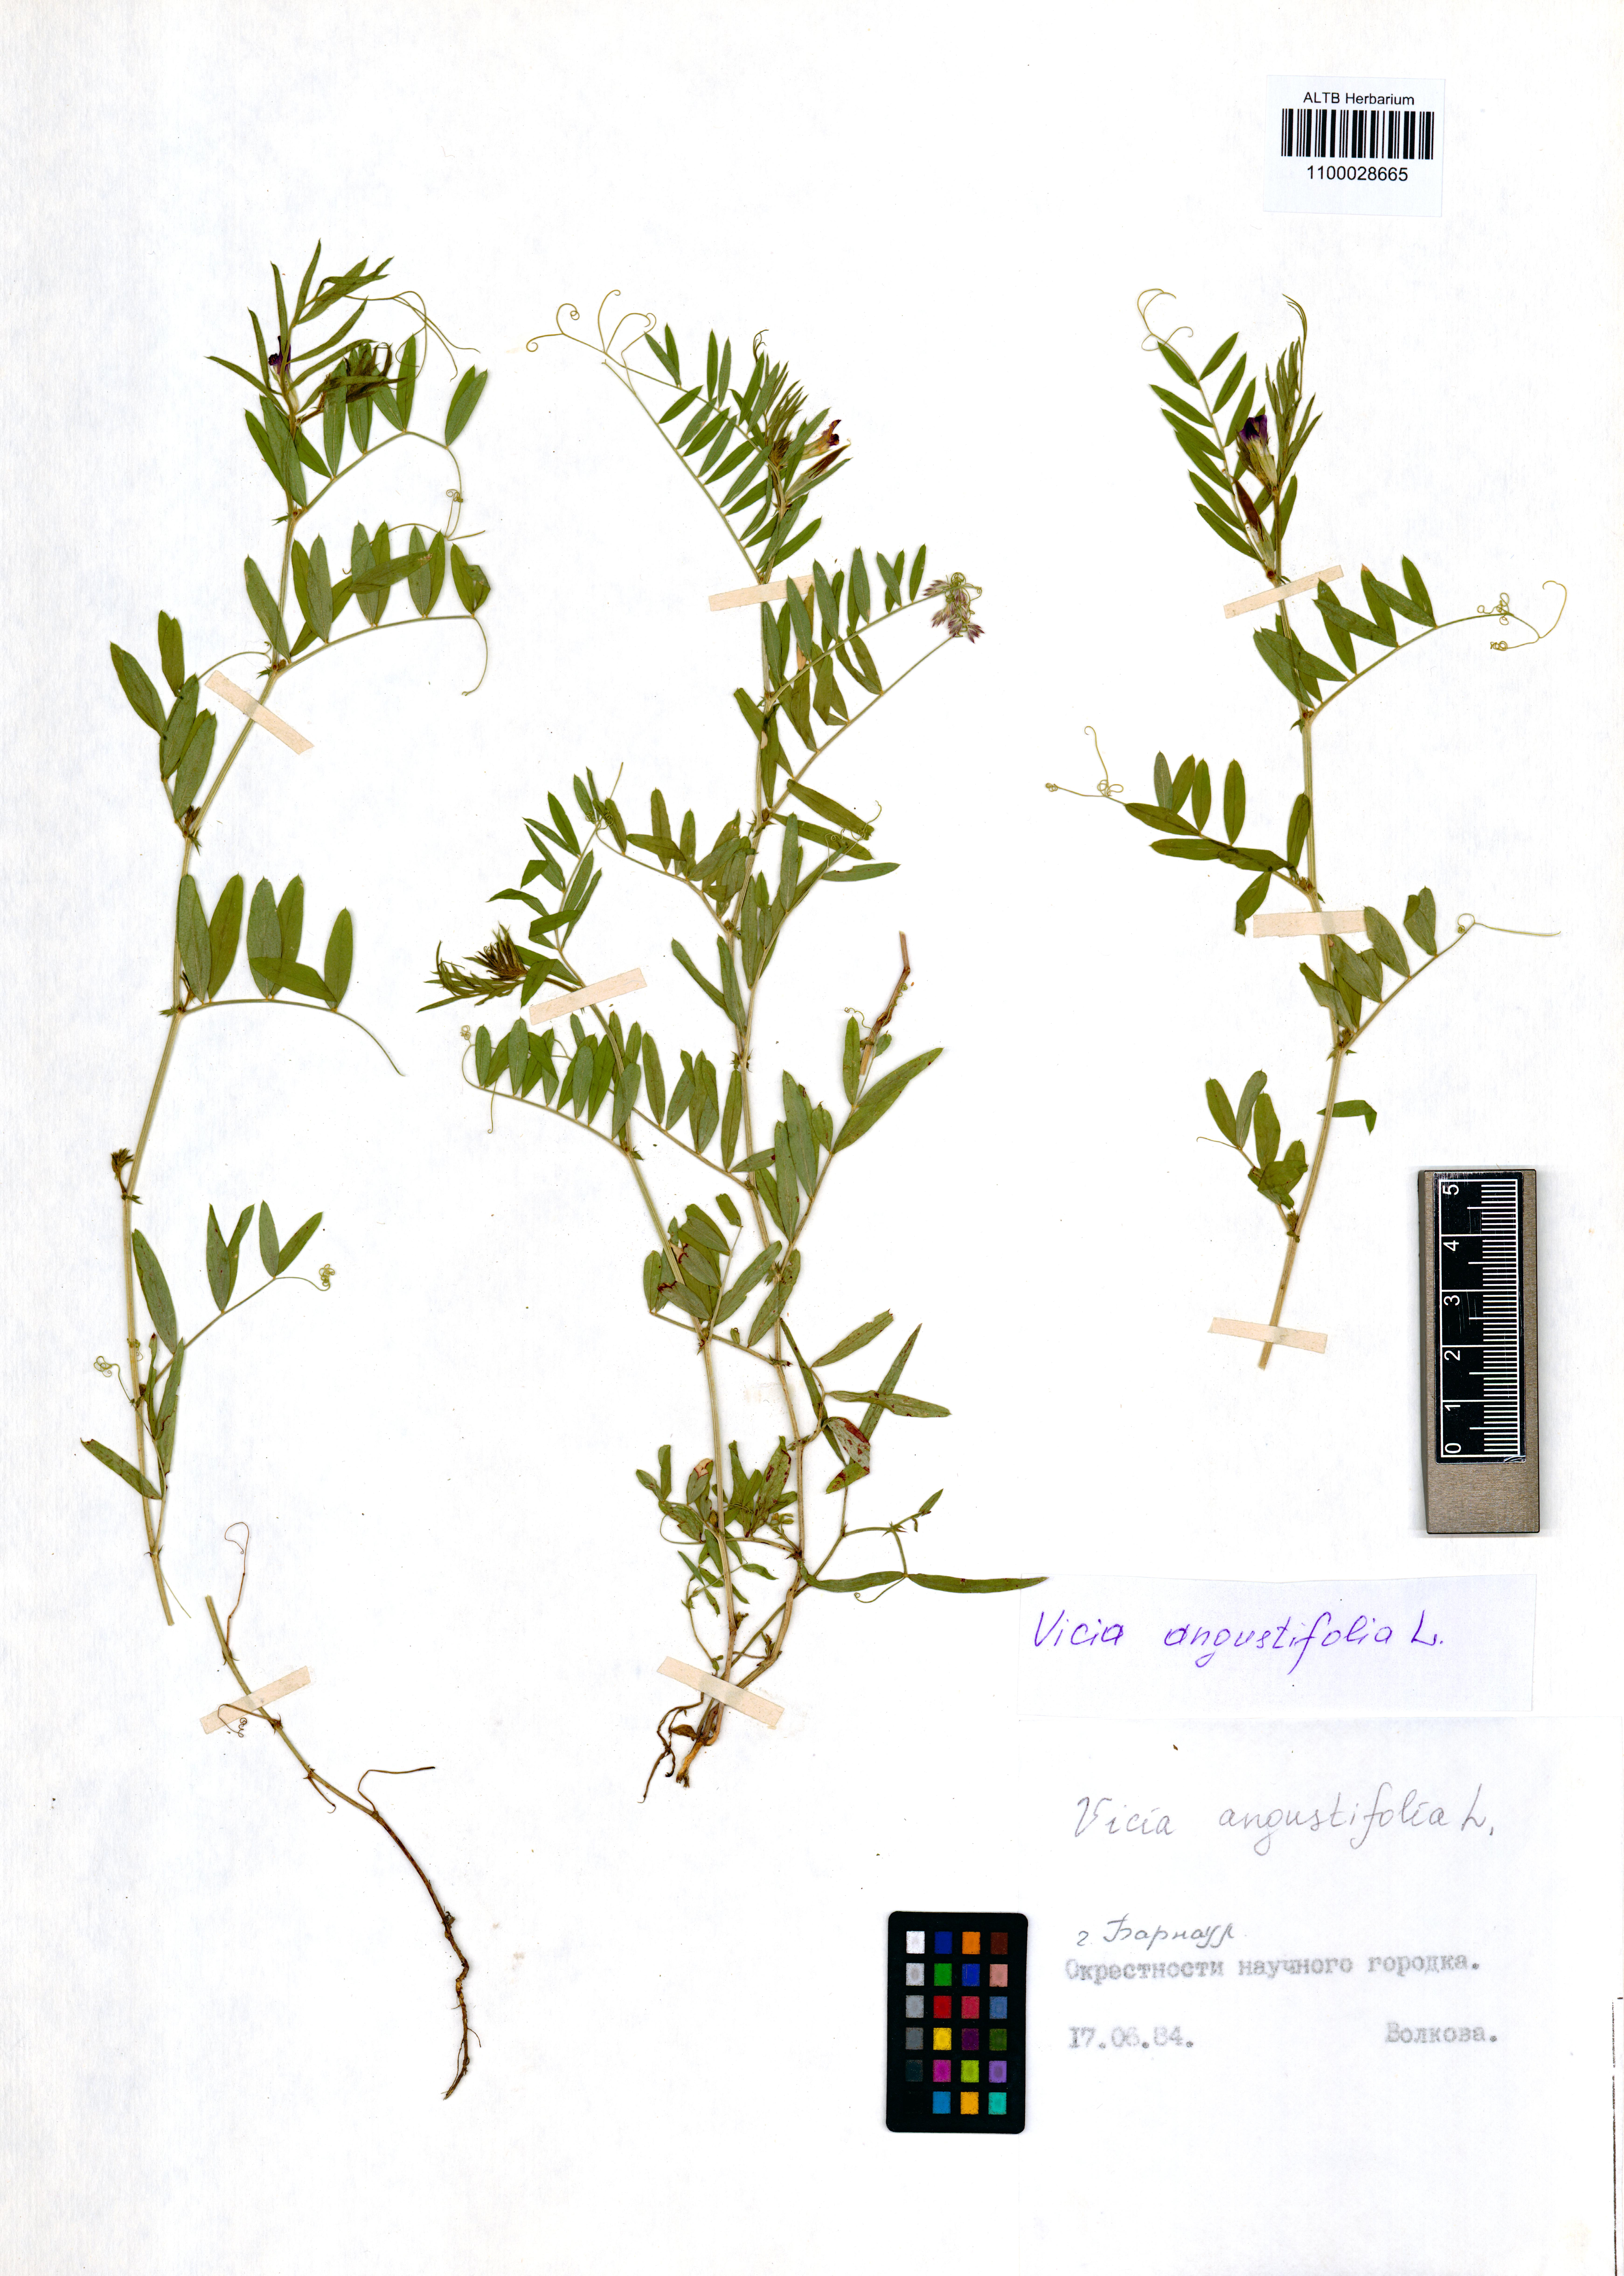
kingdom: Plantae
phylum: Tracheophyta
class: Magnoliopsida
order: Fabales
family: Fabaceae
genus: Vicia
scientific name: Vicia sativa
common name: Garden vetch
